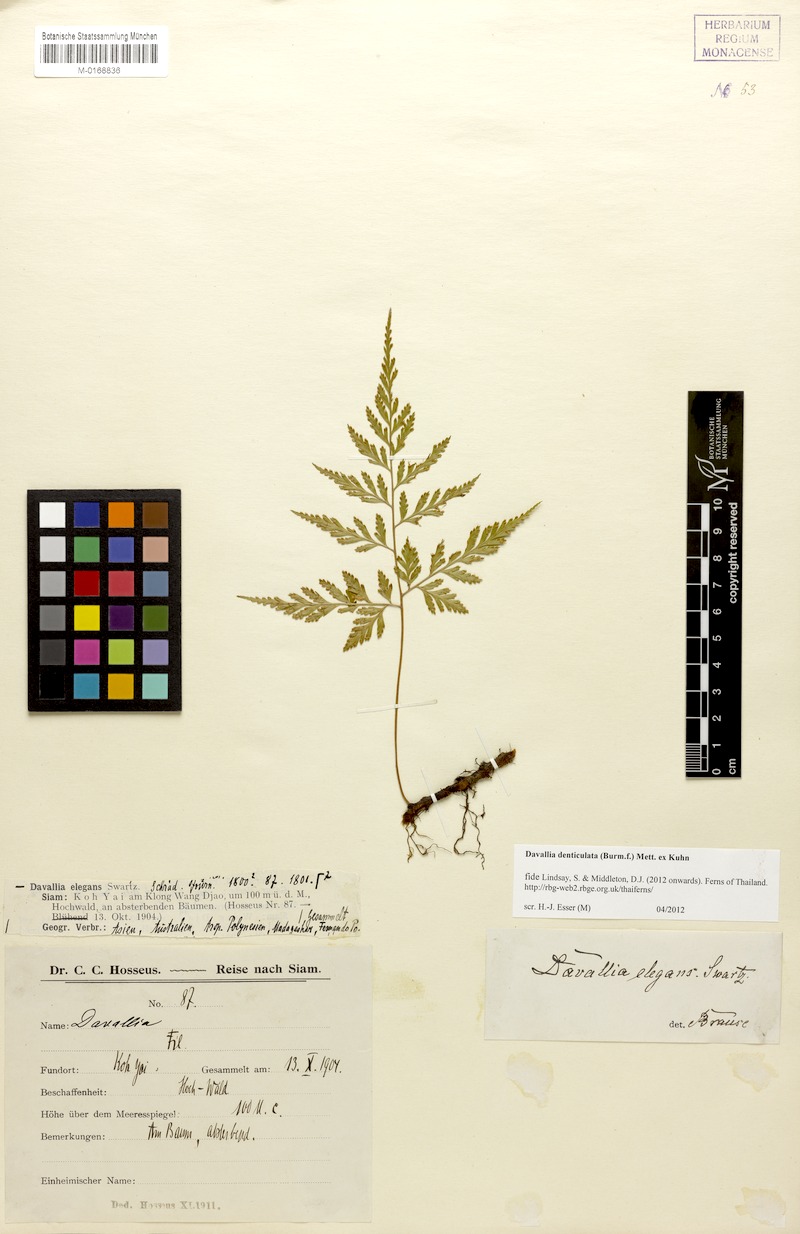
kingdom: Plantae
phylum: Tracheophyta
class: Polypodiopsida
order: Polypodiales
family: Davalliaceae
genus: Davallia
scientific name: Davallia denticulata
